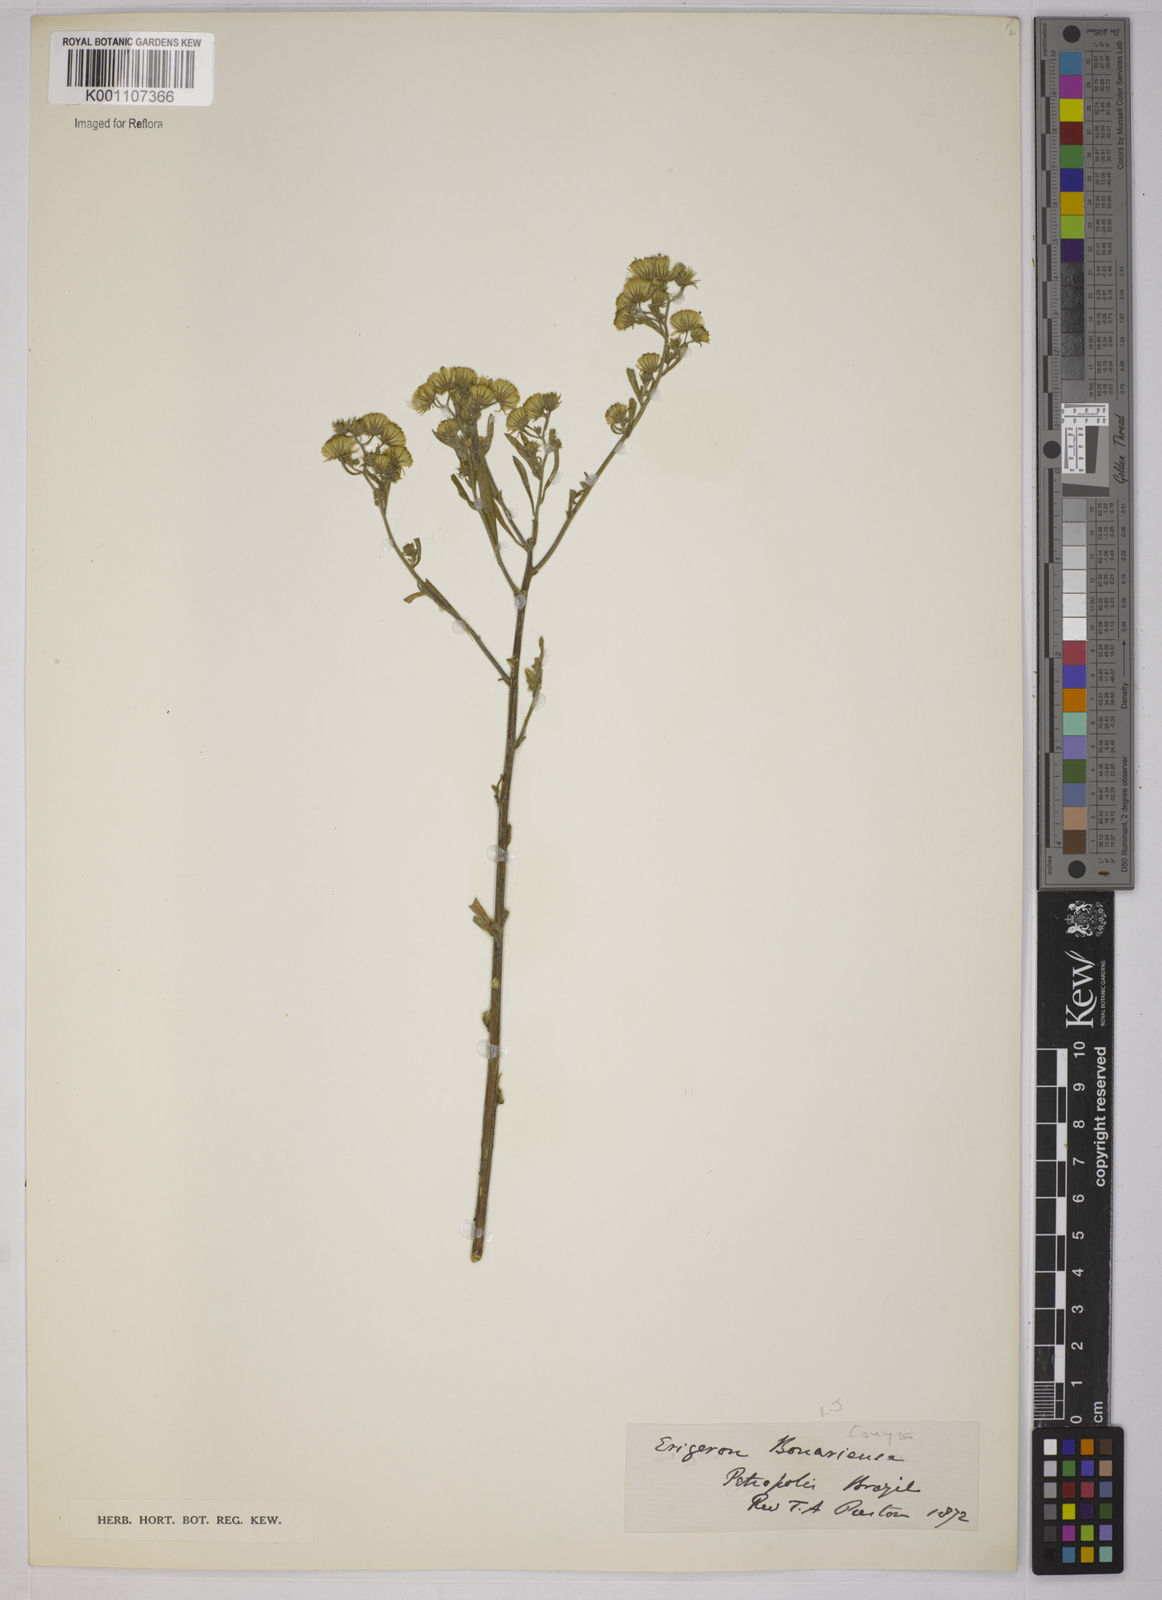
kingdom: Plantae
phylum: Tracheophyta
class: Magnoliopsida
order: Asterales
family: Asteraceae
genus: Erigeron
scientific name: Erigeron bonariensis
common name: Argentine fleabane
